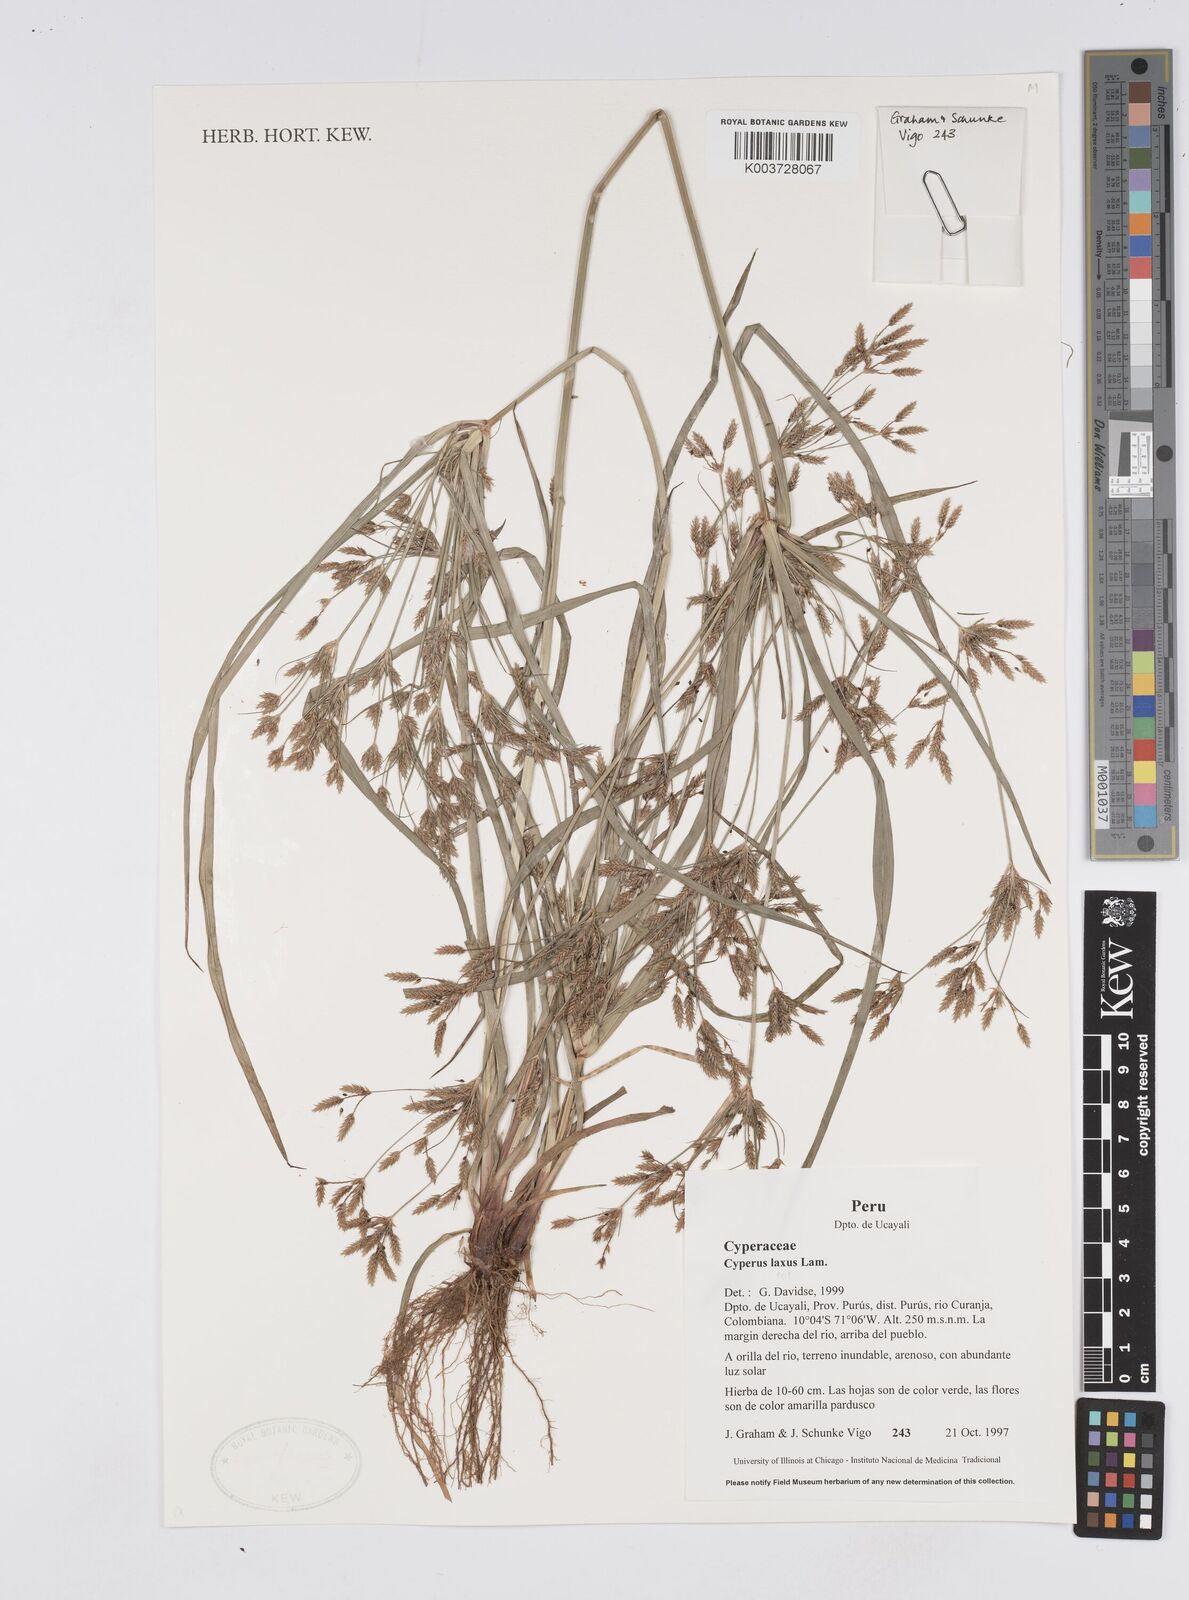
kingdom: Plantae
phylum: Tracheophyta
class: Liliopsida
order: Poales
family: Cyperaceae
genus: Cyperus
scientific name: Cyperus laxus
